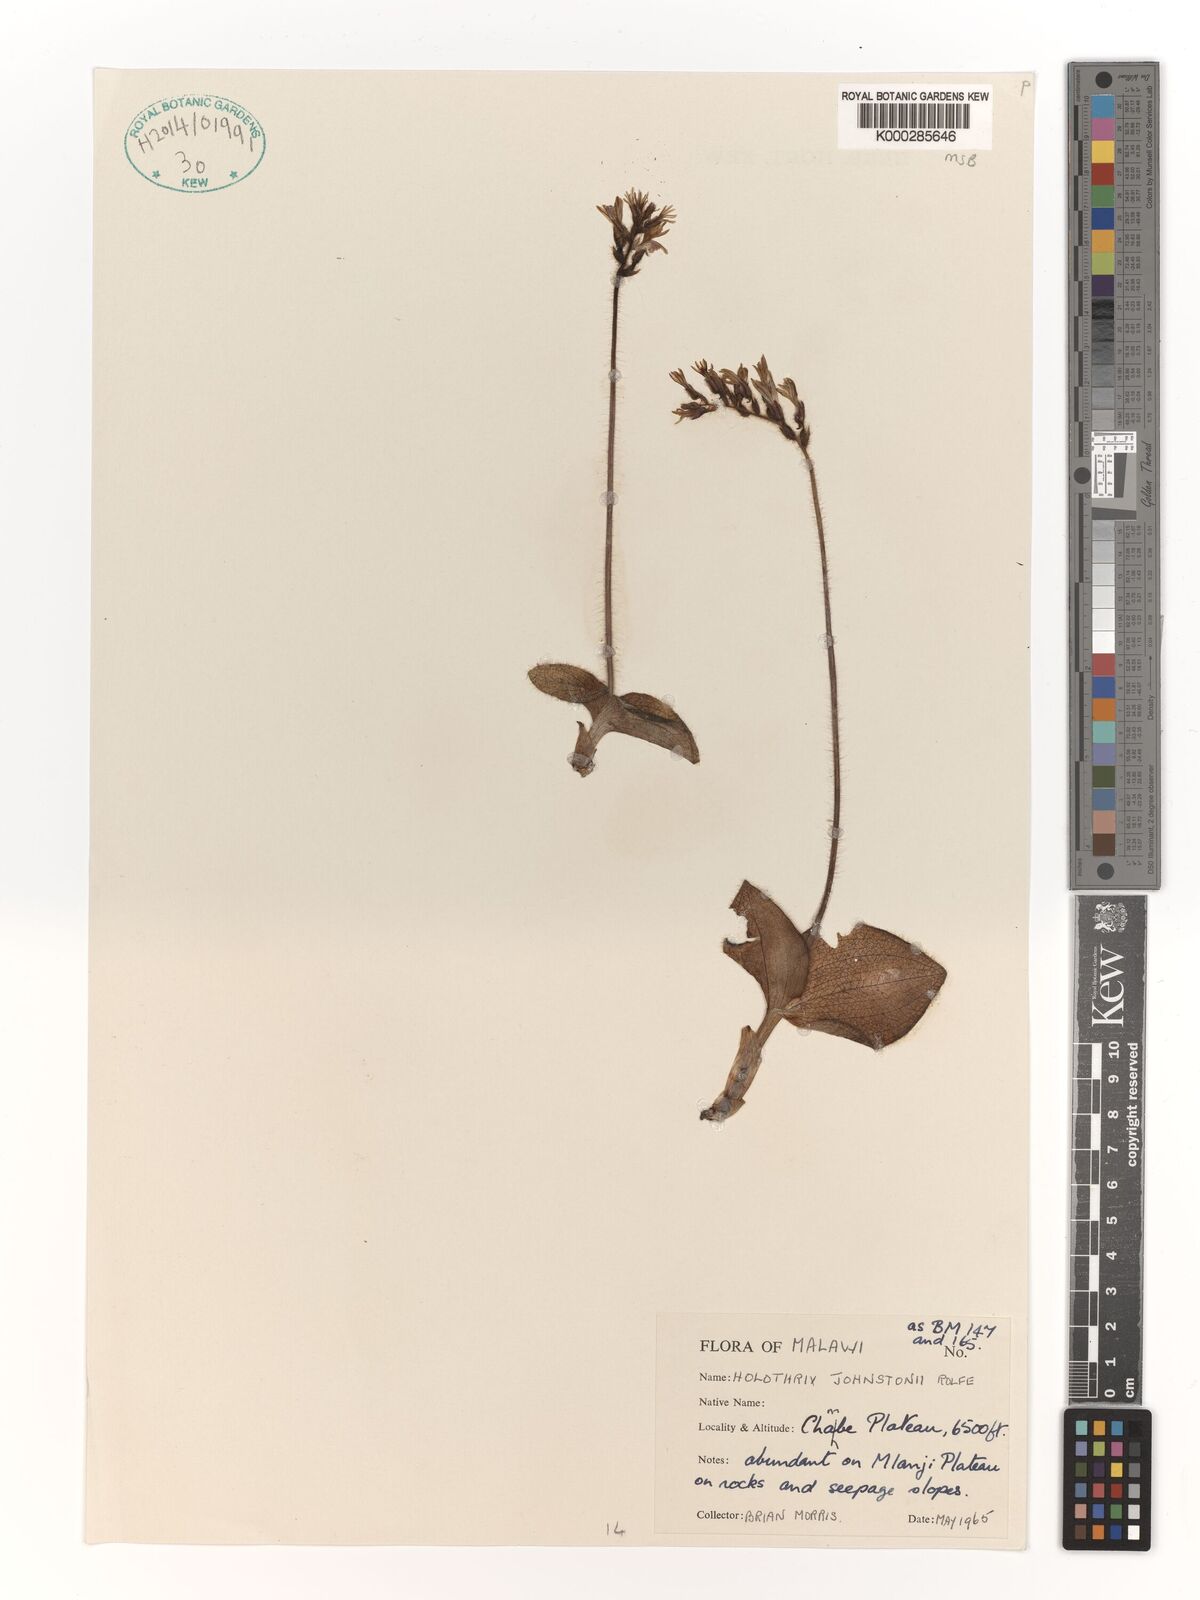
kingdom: Plantae
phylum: Tracheophyta
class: Liliopsida
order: Asparagales
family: Orchidaceae
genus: Holothrix
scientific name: Holothrix johnstonii
